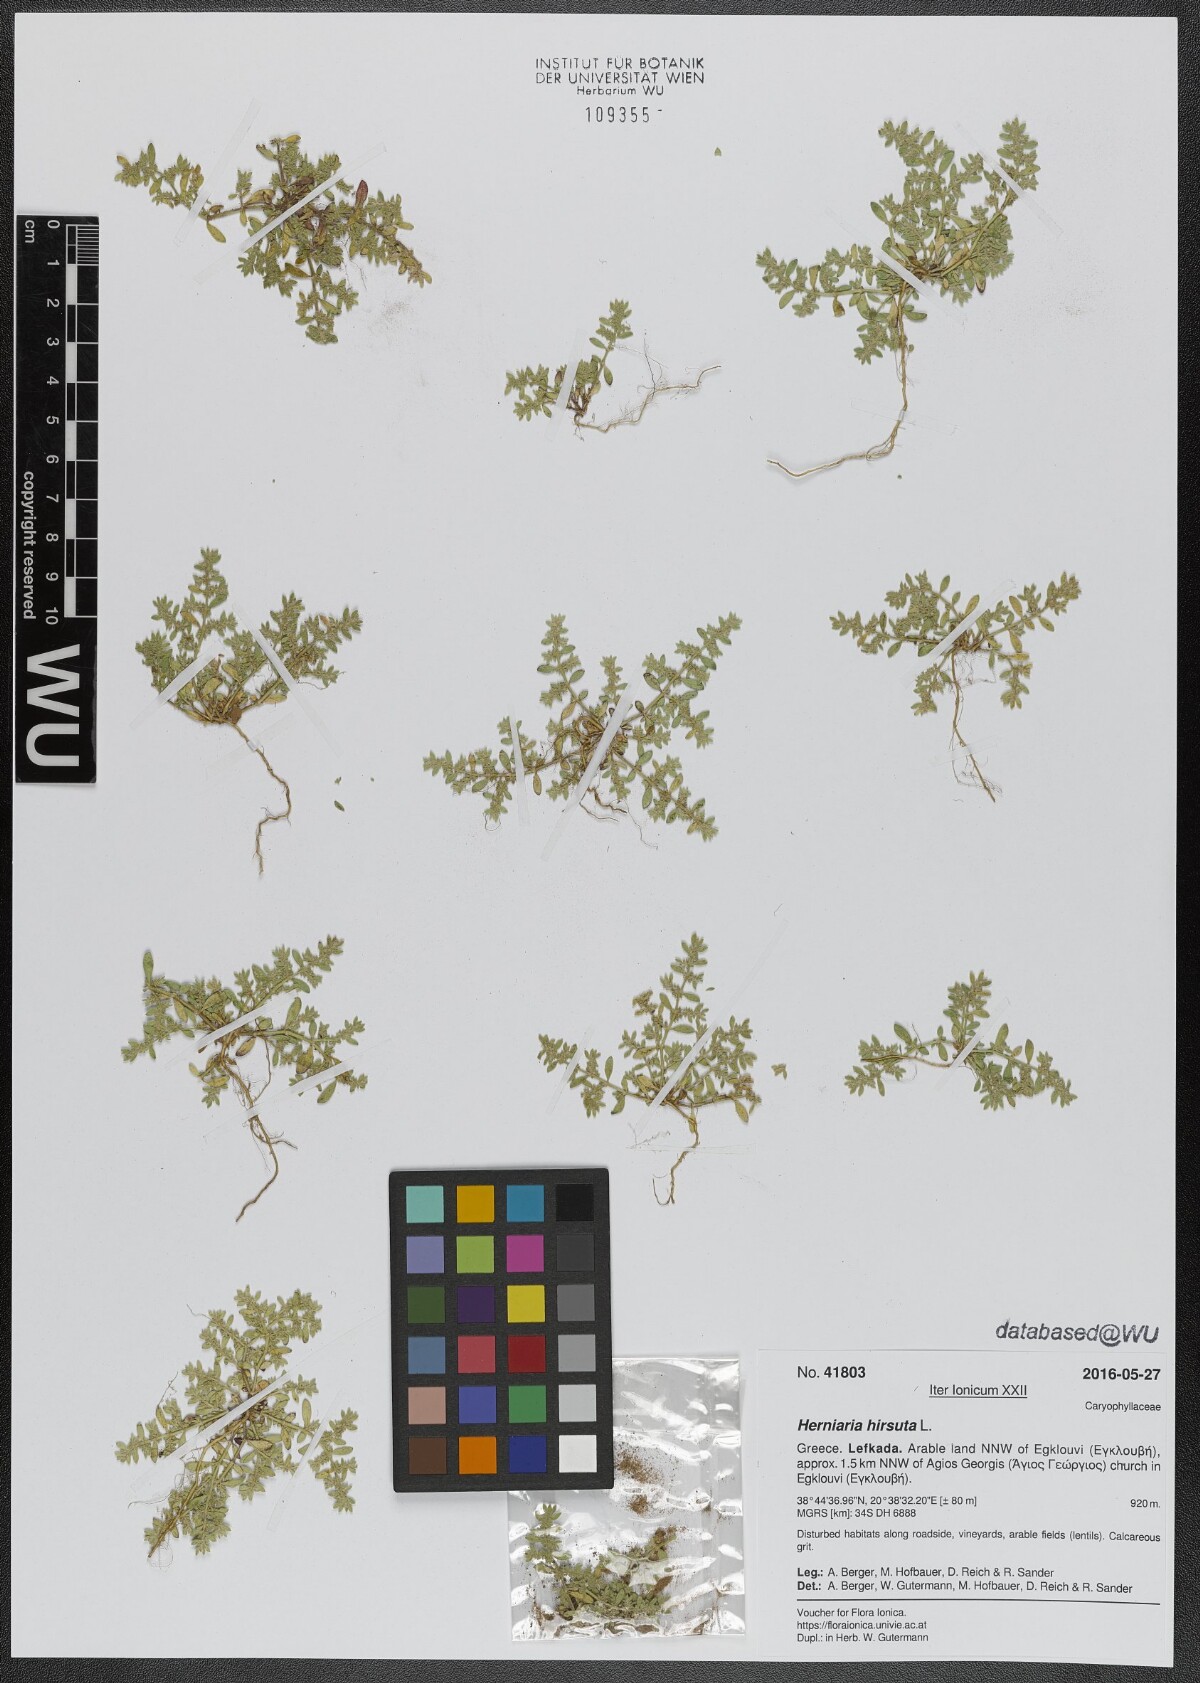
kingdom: Plantae
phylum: Tracheophyta
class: Magnoliopsida
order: Caryophyllales
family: Caryophyllaceae
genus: Herniaria
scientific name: Herniaria hirsuta
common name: Hairy rupturewort
